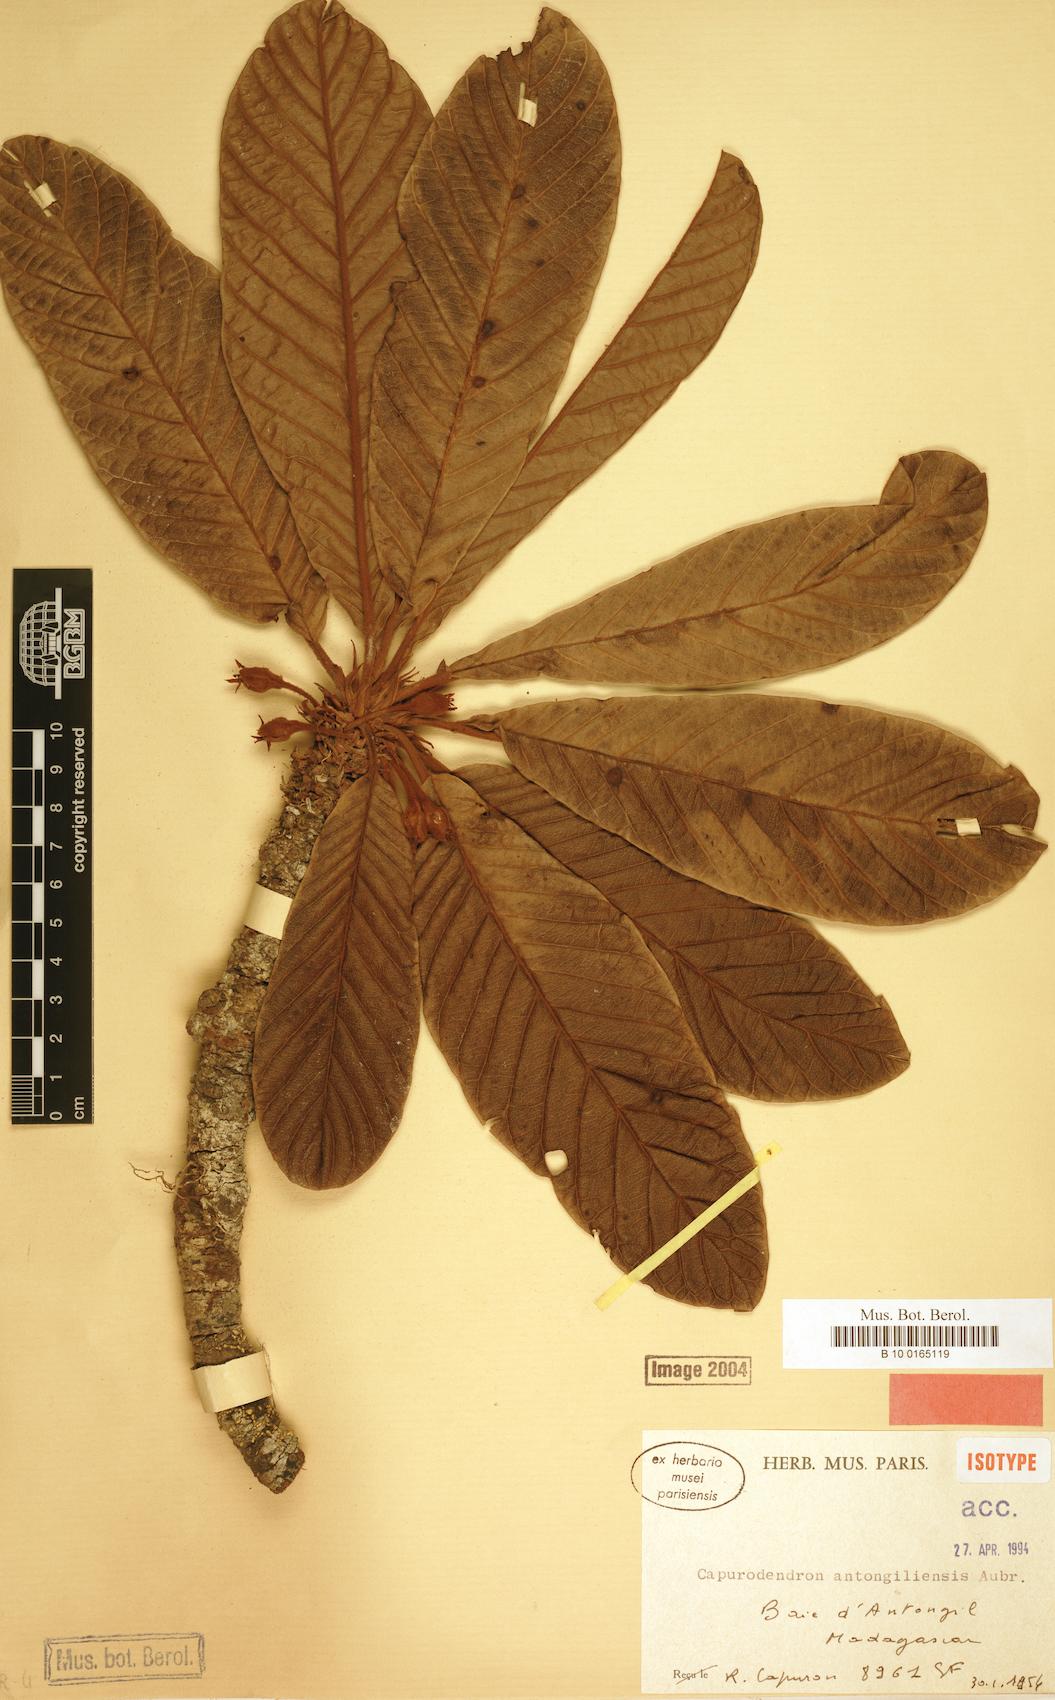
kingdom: Plantae
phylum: Tracheophyta
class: Magnoliopsida
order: Ericales
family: Sapotaceae
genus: Capurodendron
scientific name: Capurodendron antongiliense
